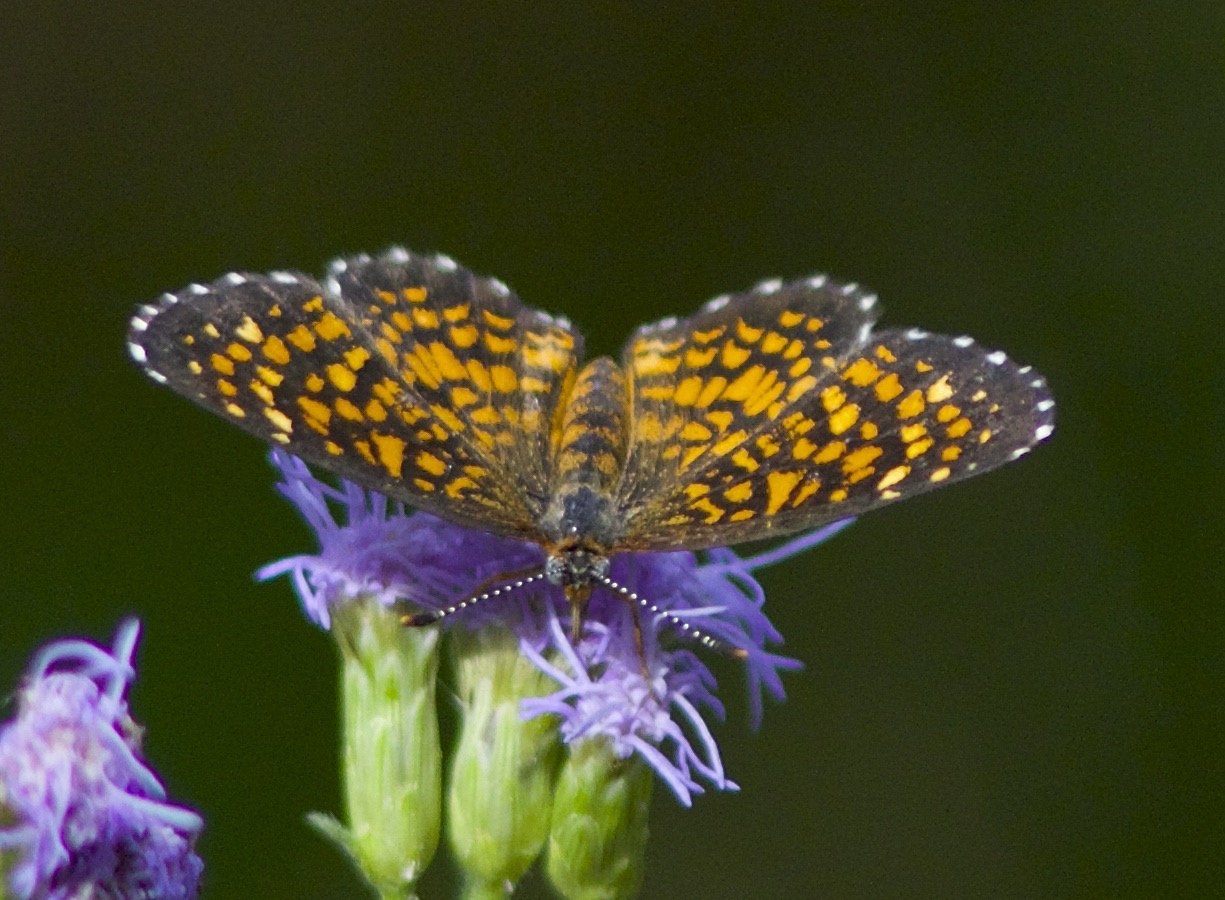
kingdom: Animalia
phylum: Arthropoda
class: Insecta
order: Lepidoptera
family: Nymphalidae
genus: Texola
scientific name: Texola elada
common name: Elada Checkerspot
